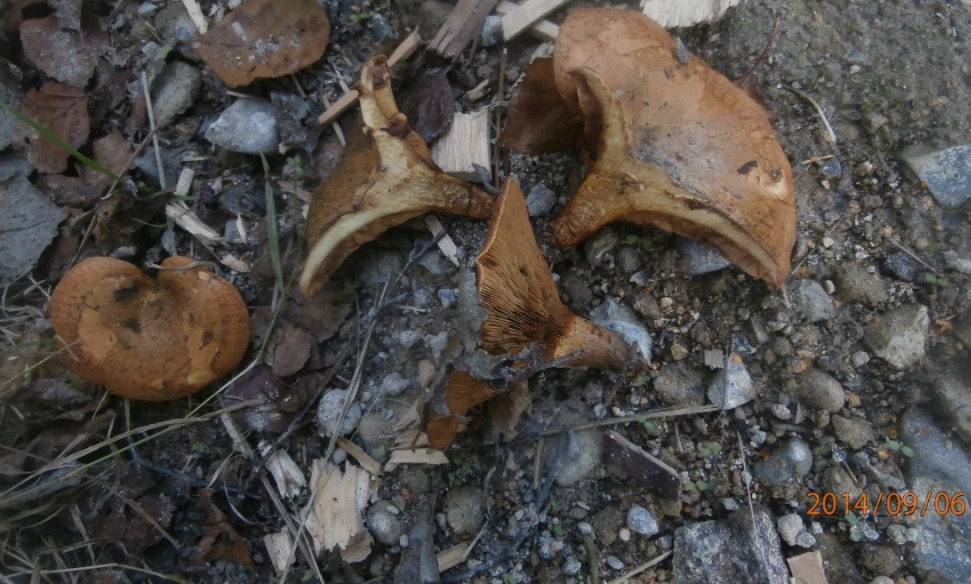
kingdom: Fungi
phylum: Basidiomycota
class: Agaricomycetes
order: Boletales
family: Paxillaceae
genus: Paxillus
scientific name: Paxillus rubicundulus
